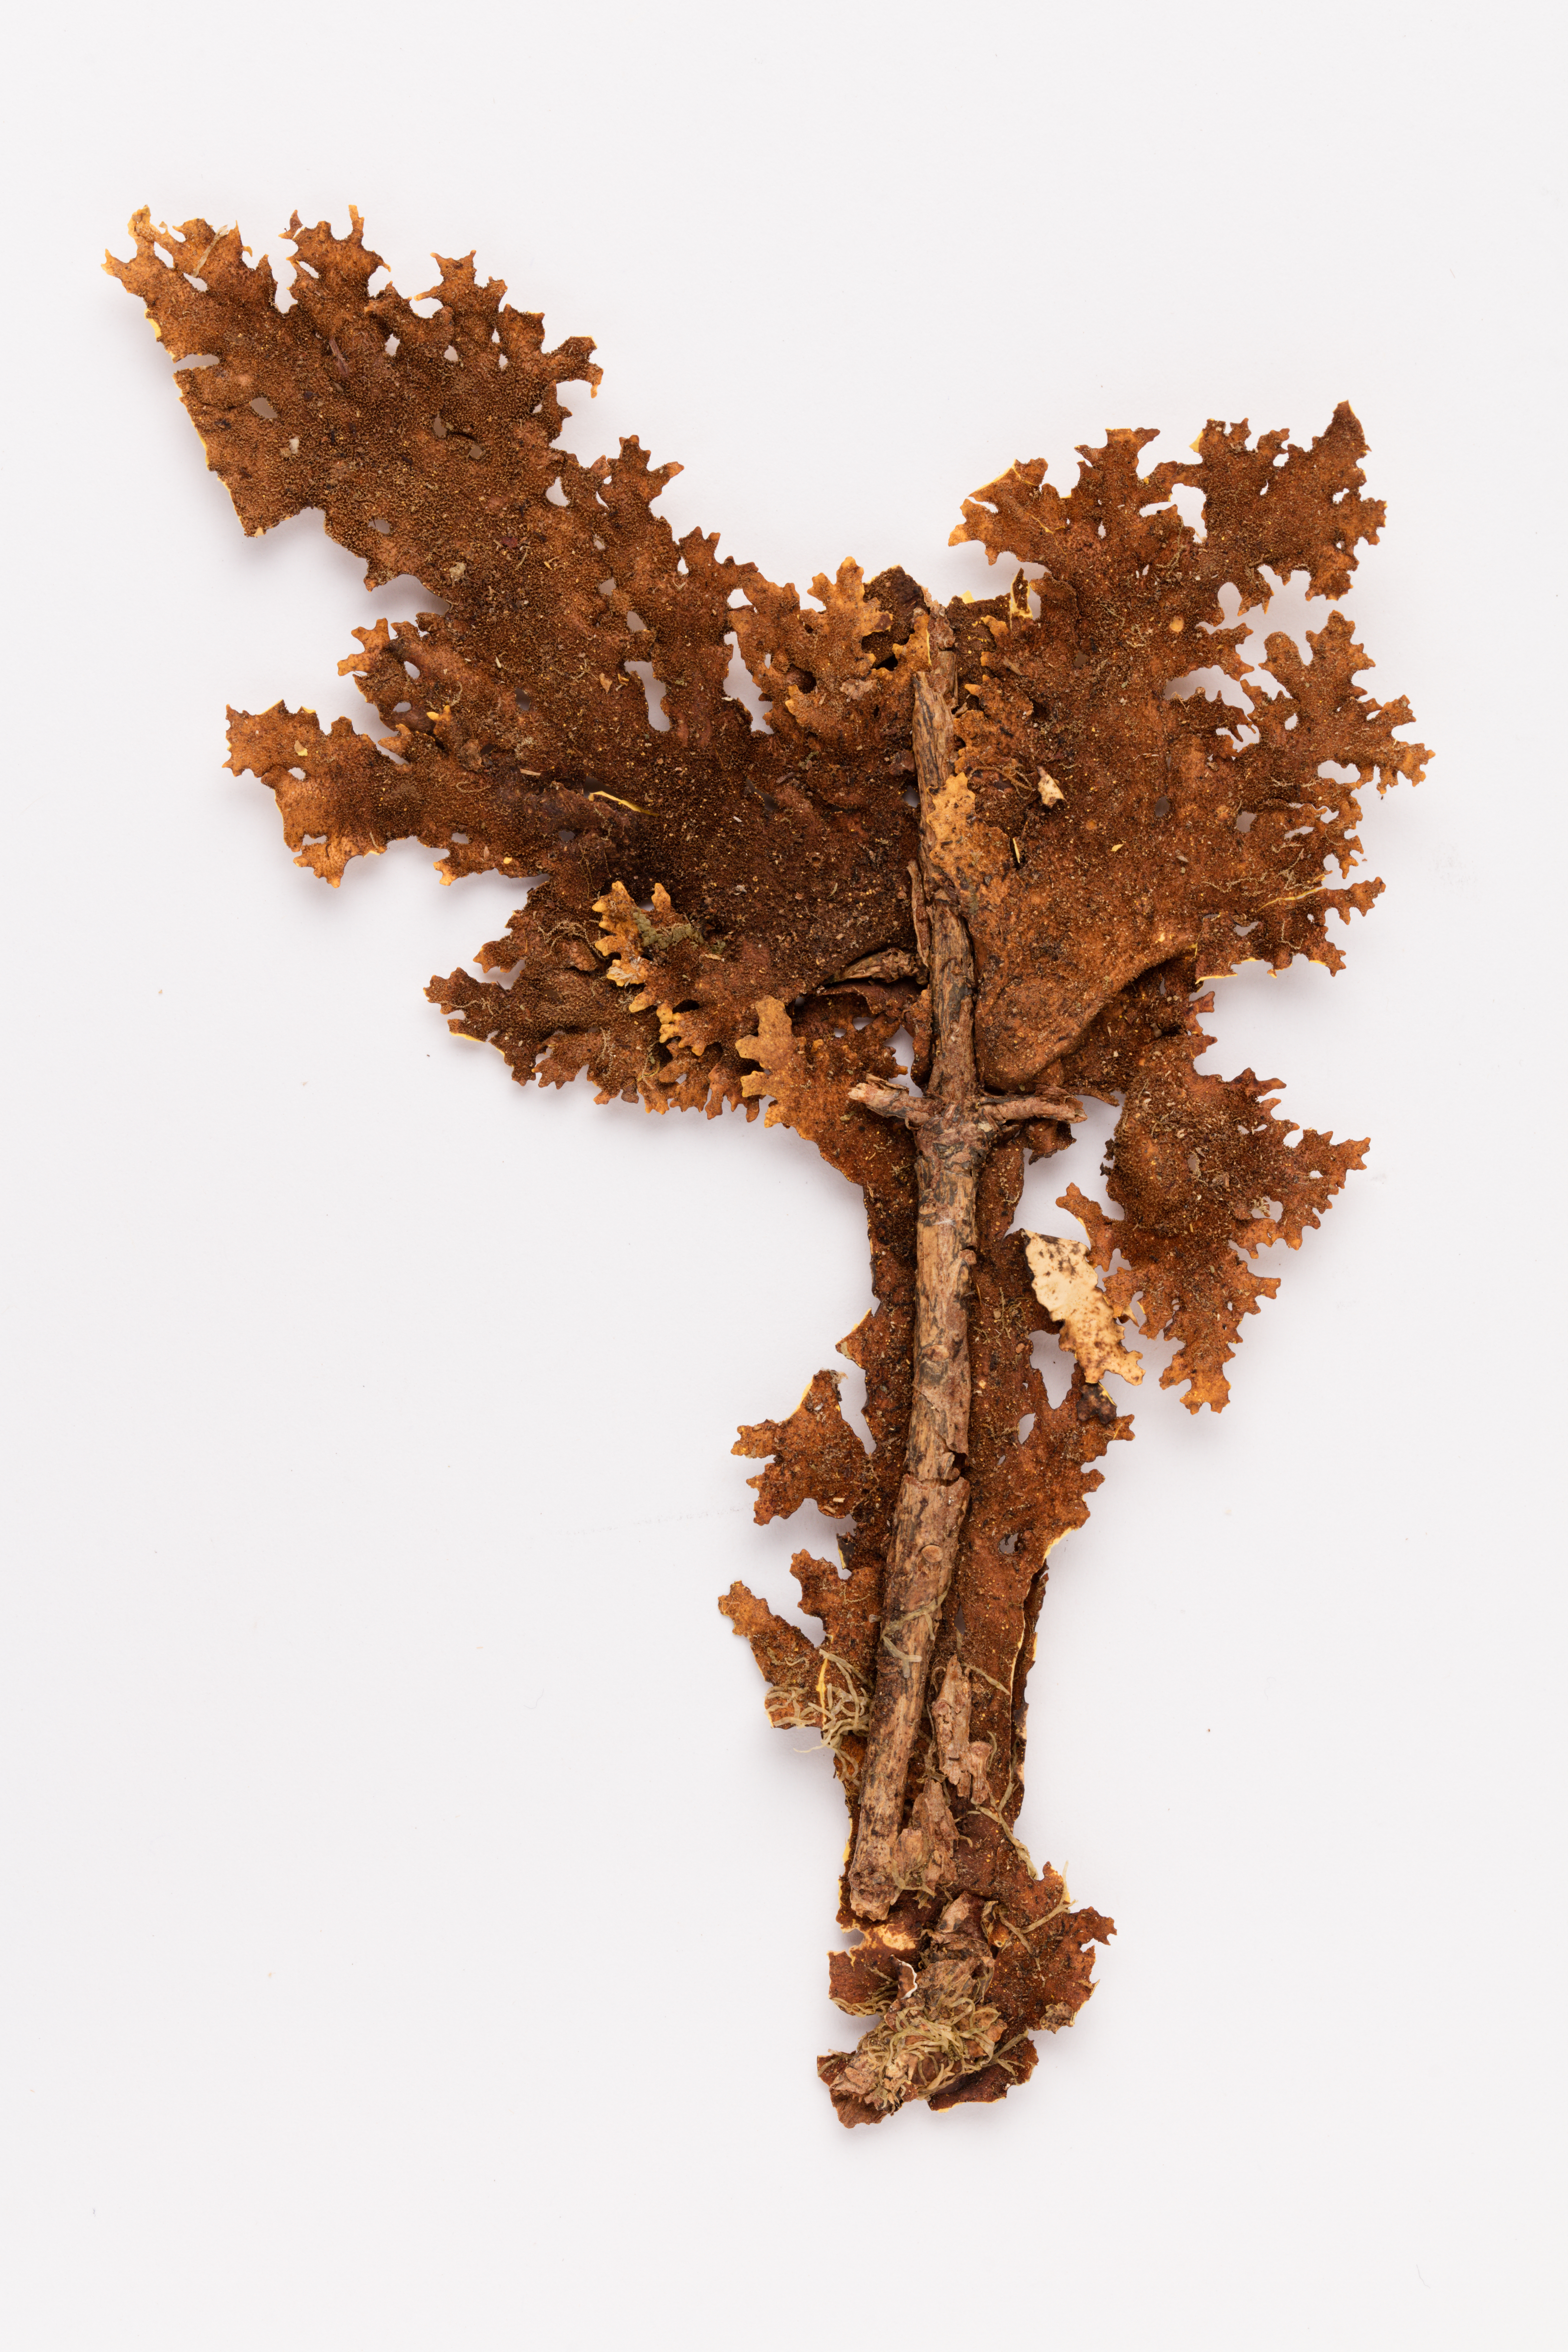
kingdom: Fungi
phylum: Ascomycota
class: Lecanoromycetes
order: Peltigerales
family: Lobariaceae
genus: Yarrumia
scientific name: Yarrumia coronata
